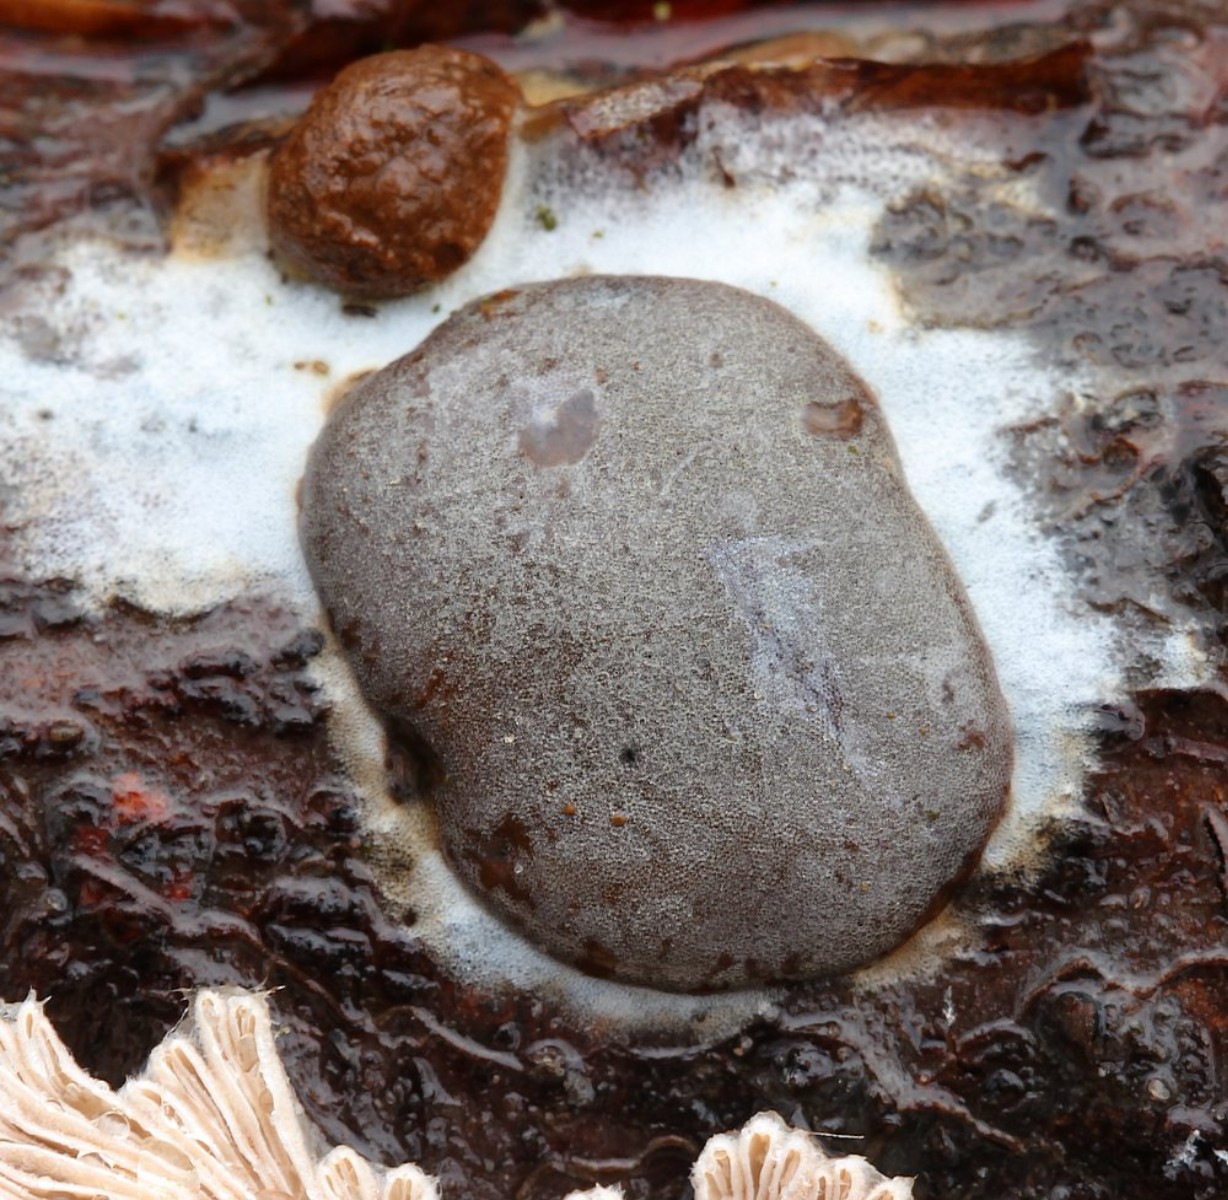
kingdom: Protozoa
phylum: Mycetozoa
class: Myxomycetes
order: Trichiales
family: Dictydiaethaliaceae
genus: Dictydiaethalium
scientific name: Dictydiaethalium plumbeum
